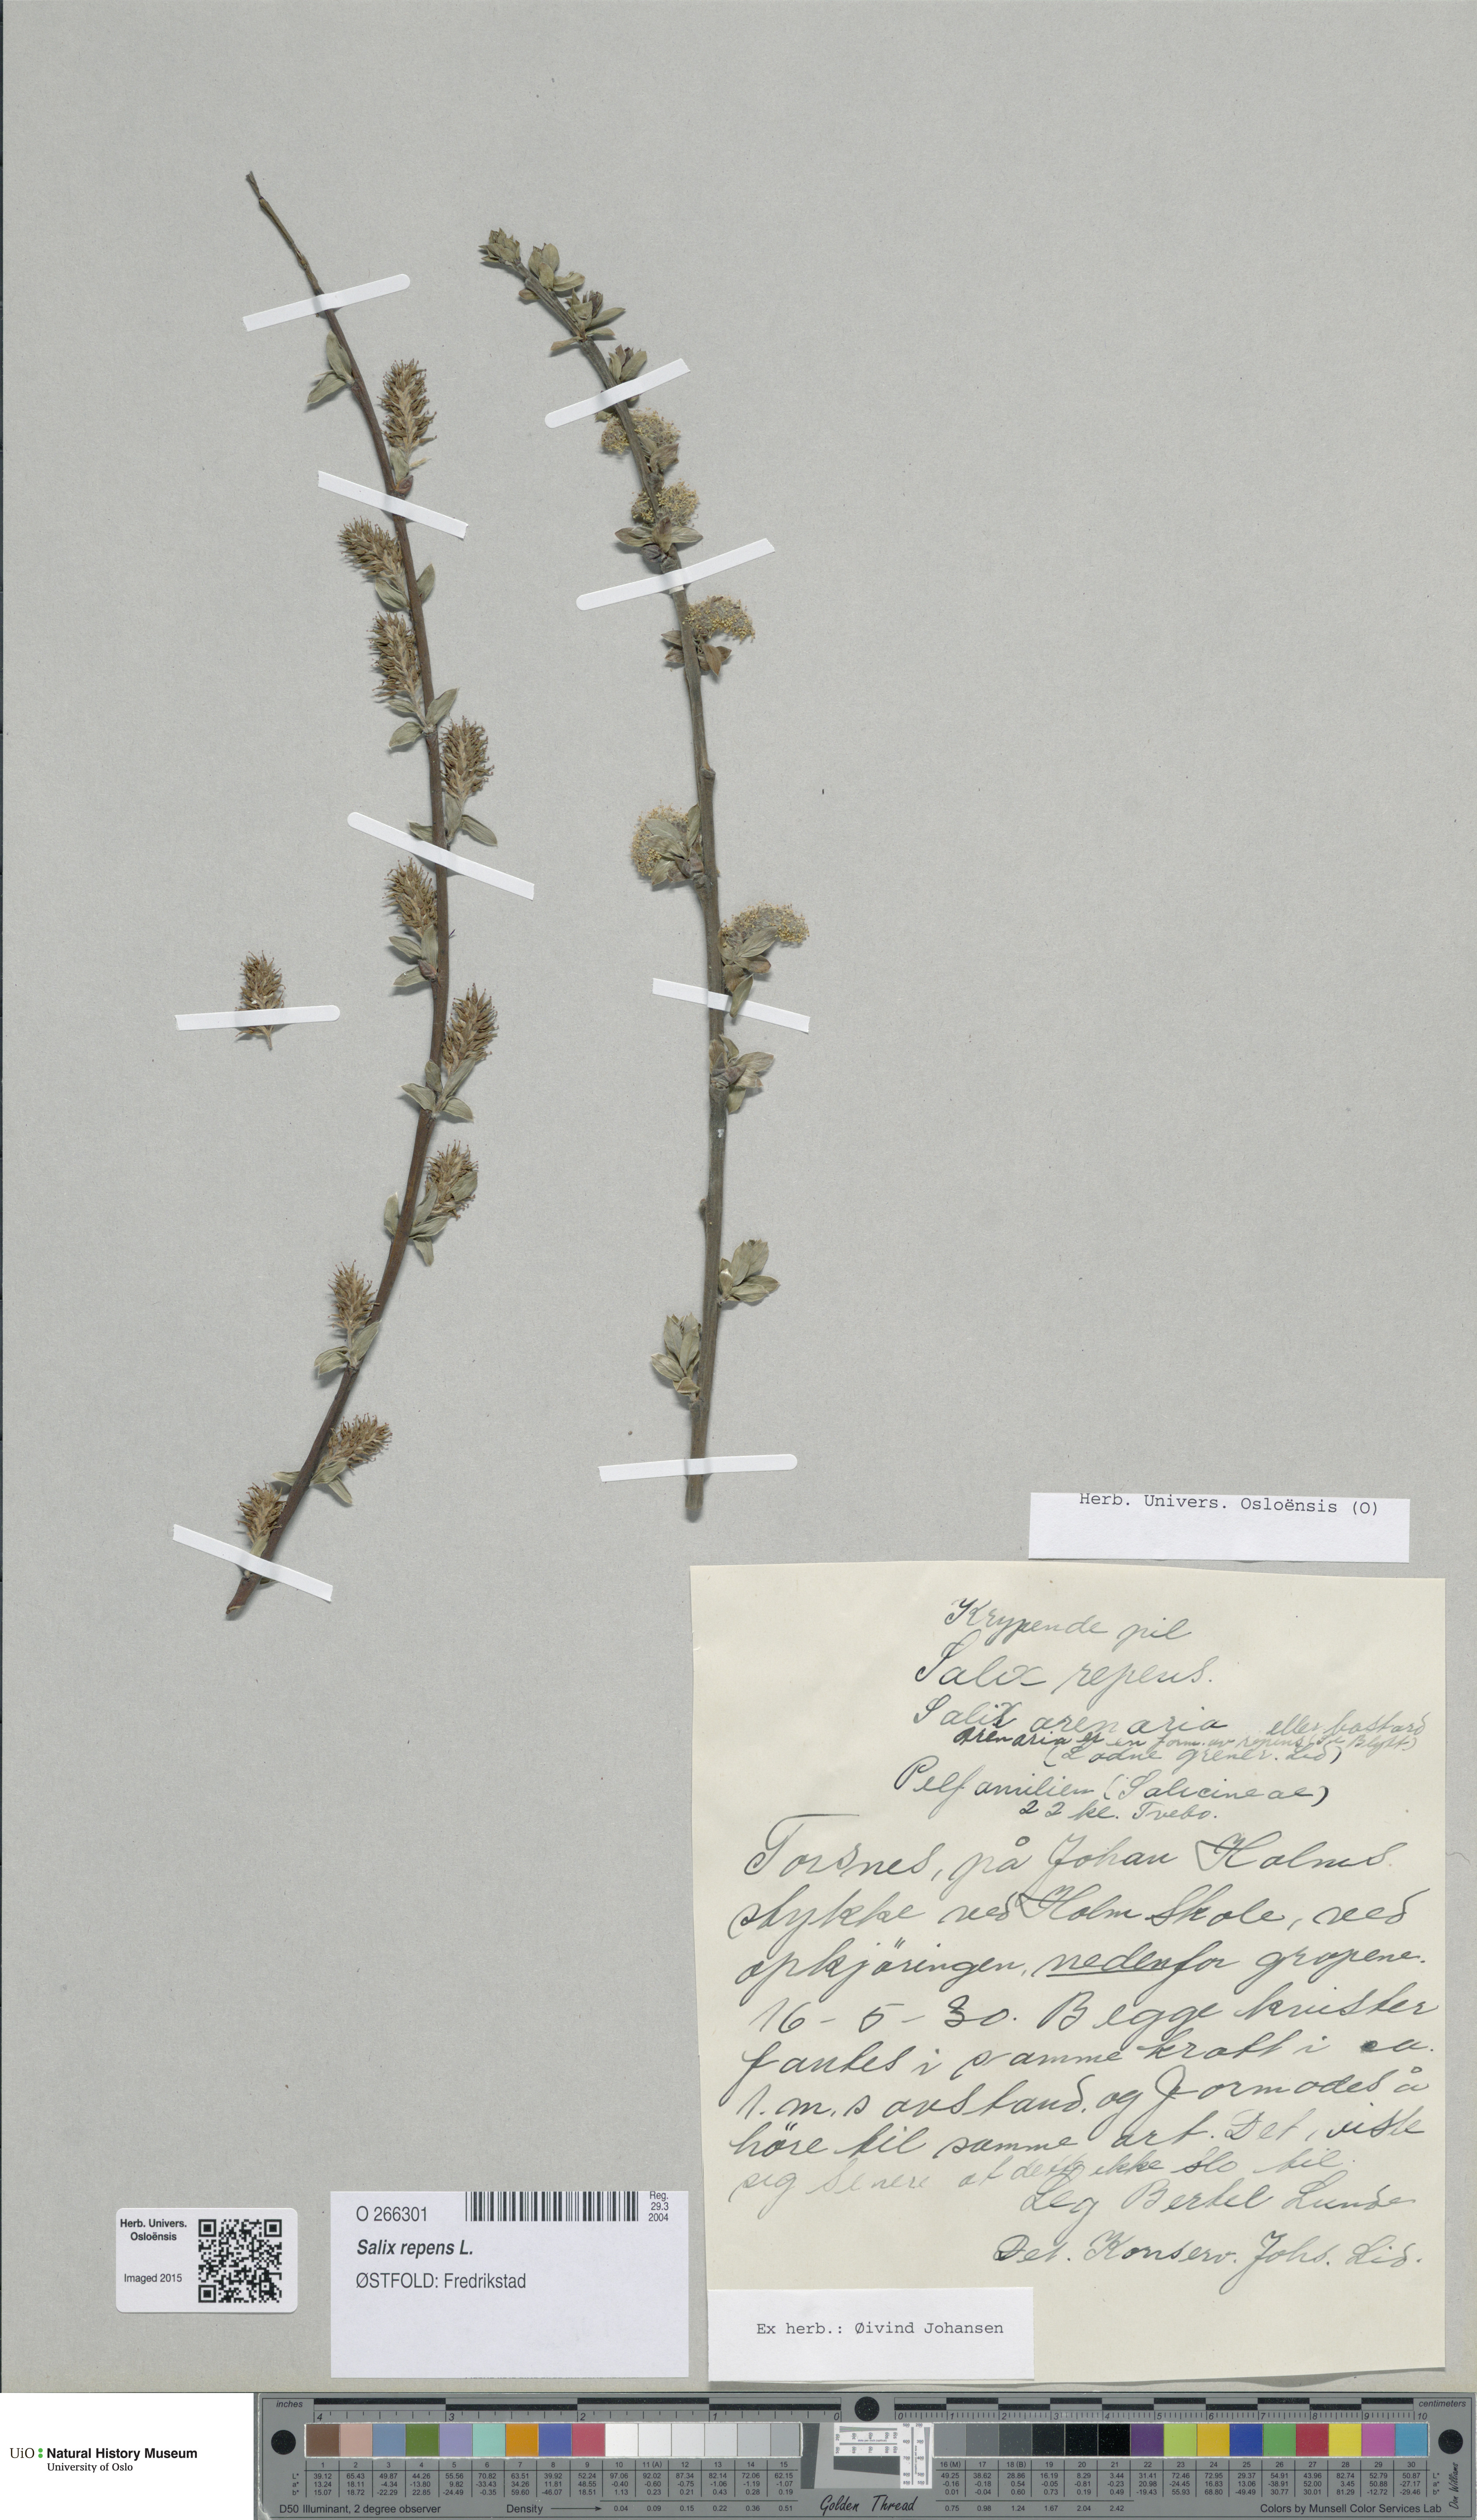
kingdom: Plantae
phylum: Tracheophyta
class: Magnoliopsida
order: Malpighiales
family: Salicaceae
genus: Salix
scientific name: Salix repens
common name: Creeping willow
